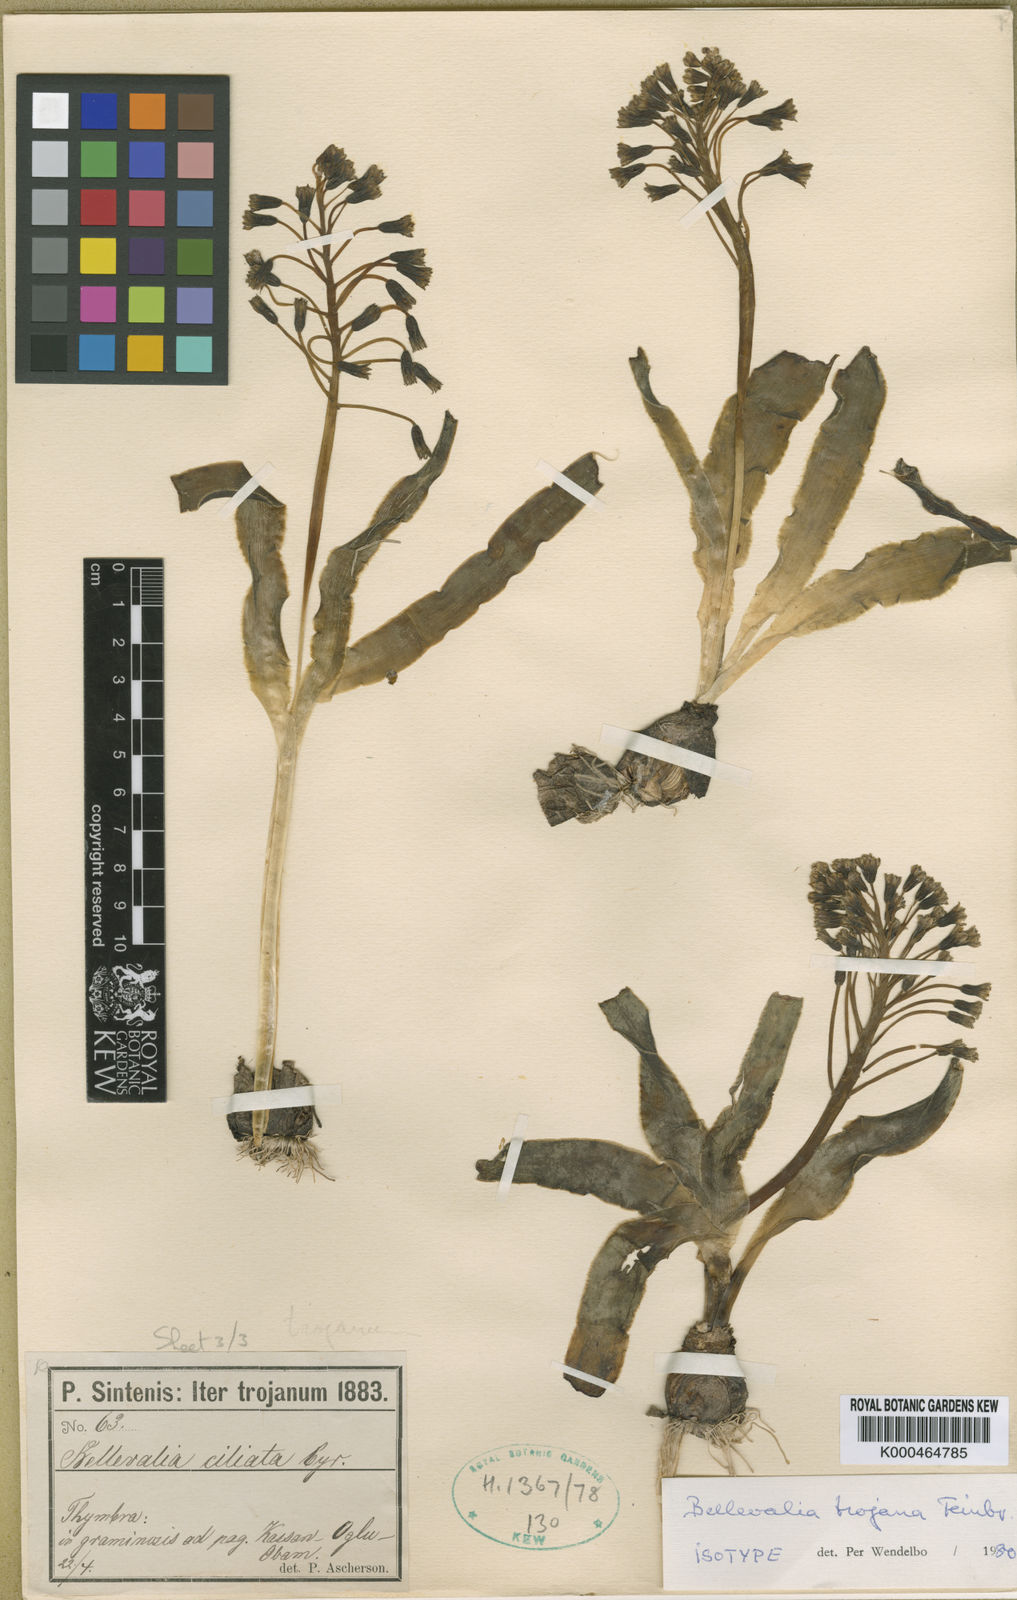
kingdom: Plantae
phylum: Tracheophyta
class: Liliopsida
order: Asparagales
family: Asparagaceae
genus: Bellevalia
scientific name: Bellevalia speciosa
